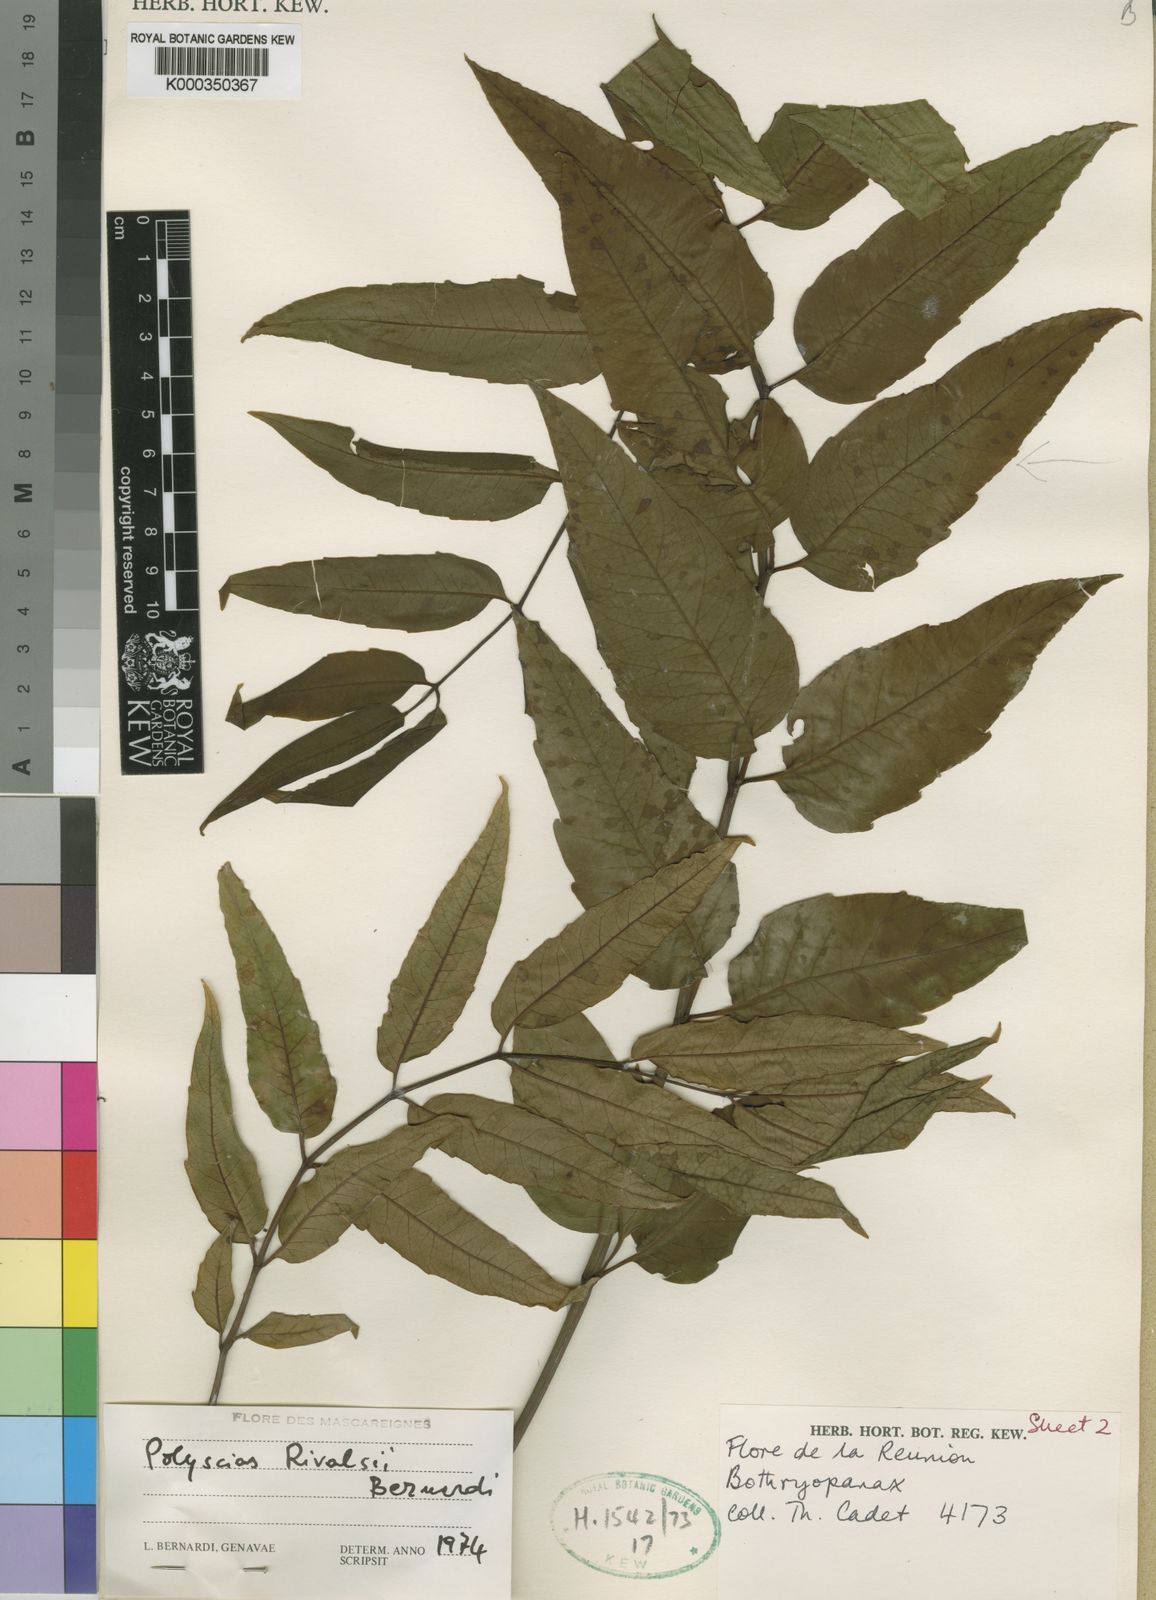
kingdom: Plantae
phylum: Tracheophyta
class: Magnoliopsida
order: Apiales
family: Araliaceae
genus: Polyscias
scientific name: Polyscias rivalsii
